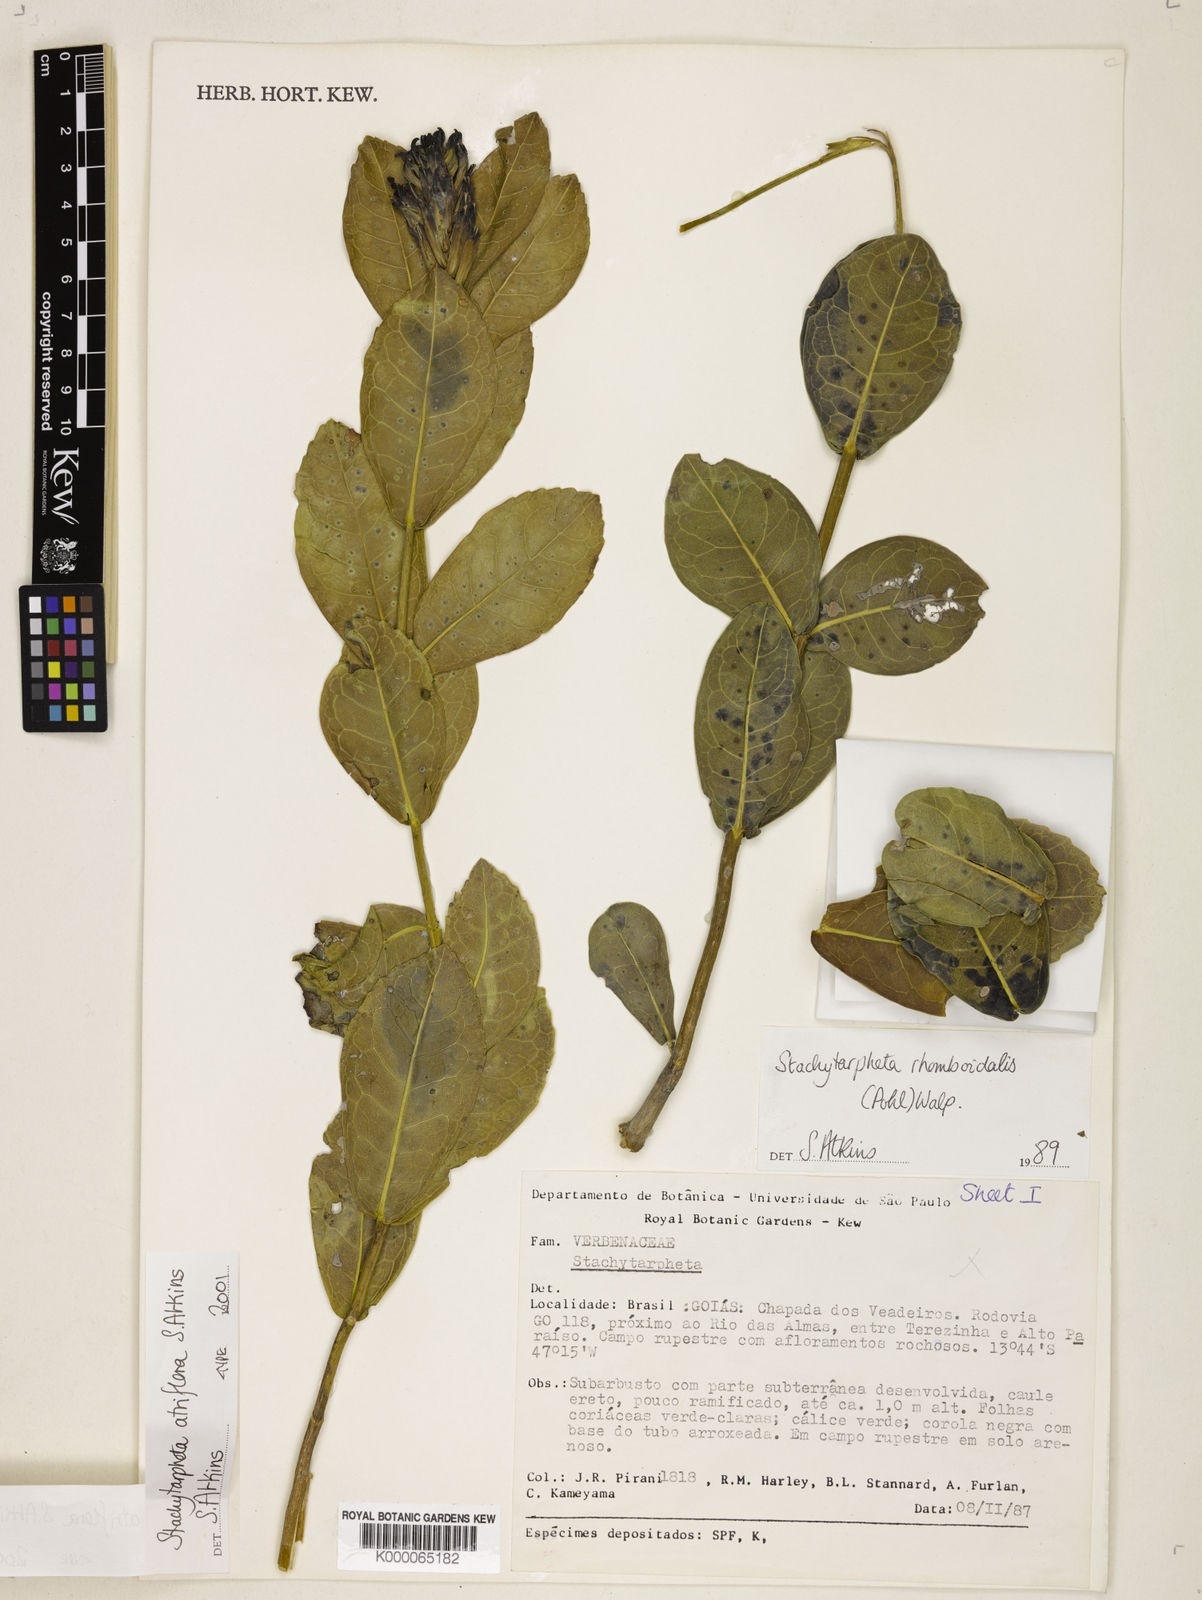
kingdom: Plantae
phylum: Tracheophyta
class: Magnoliopsida
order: Lamiales
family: Verbenaceae
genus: Stachytarpheta
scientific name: Stachytarpheta glauca
